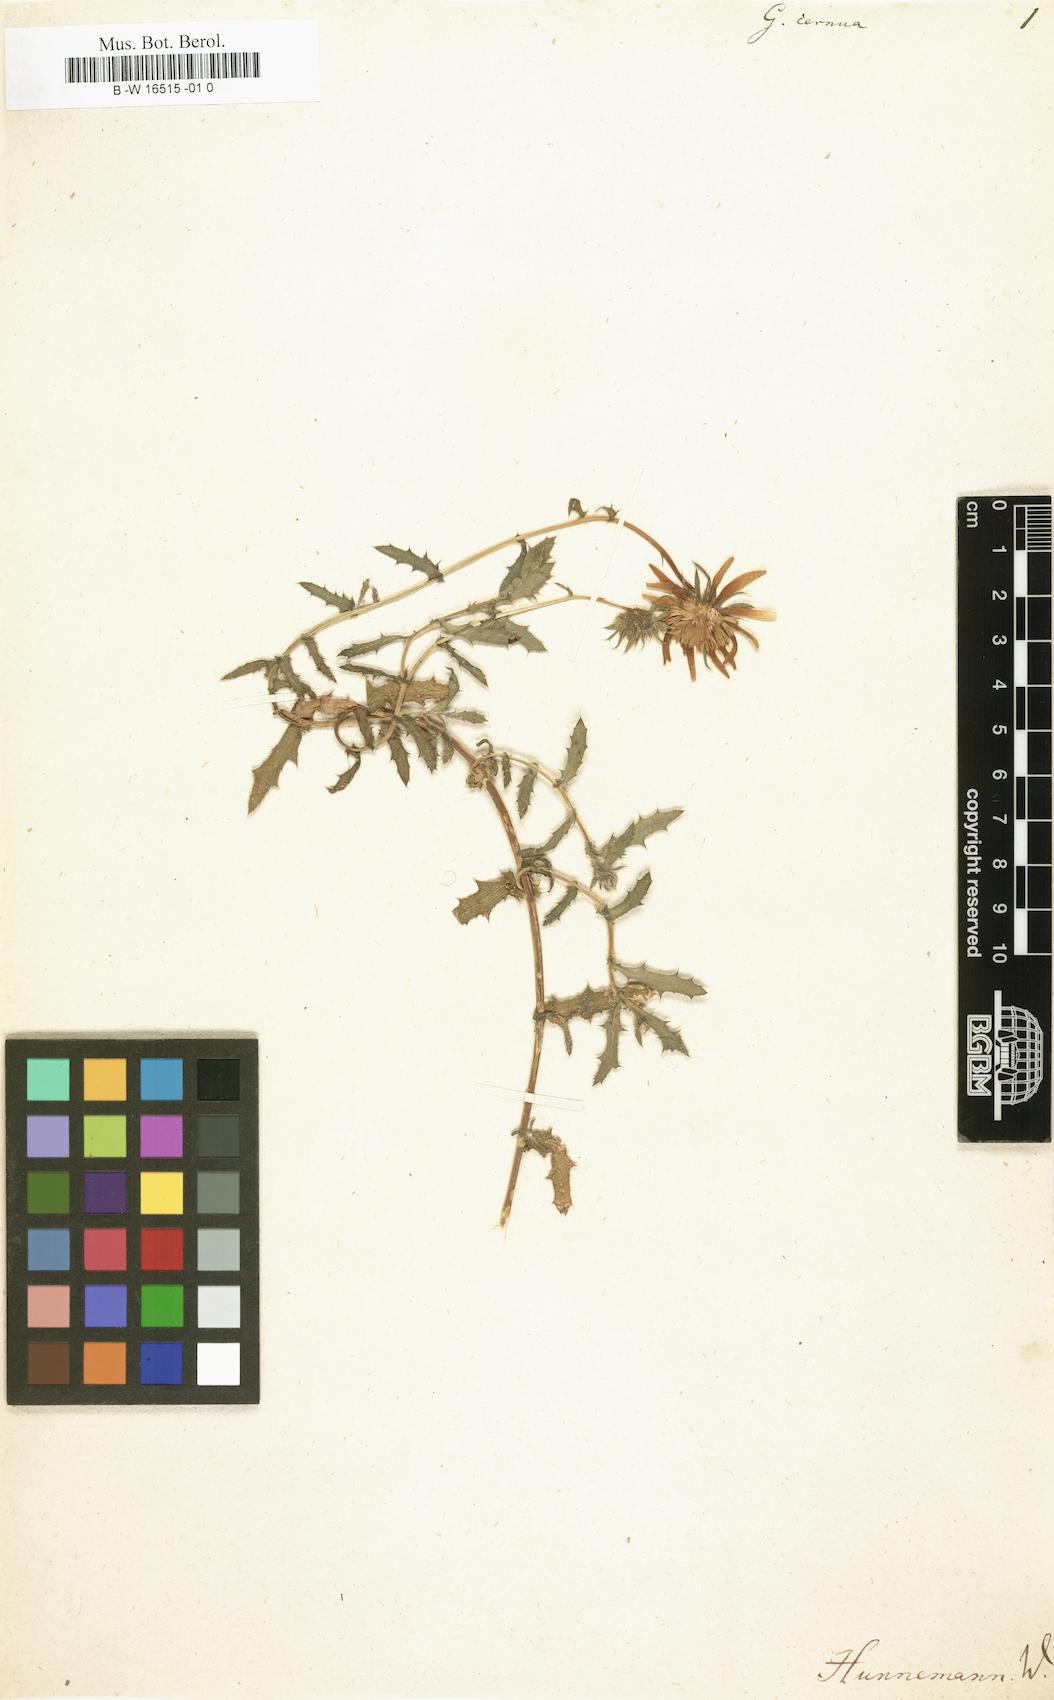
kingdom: Plantae
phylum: Tracheophyta
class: Magnoliopsida
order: Asterales
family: Asteraceae
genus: Cuspidia
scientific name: Cuspidia cernua
